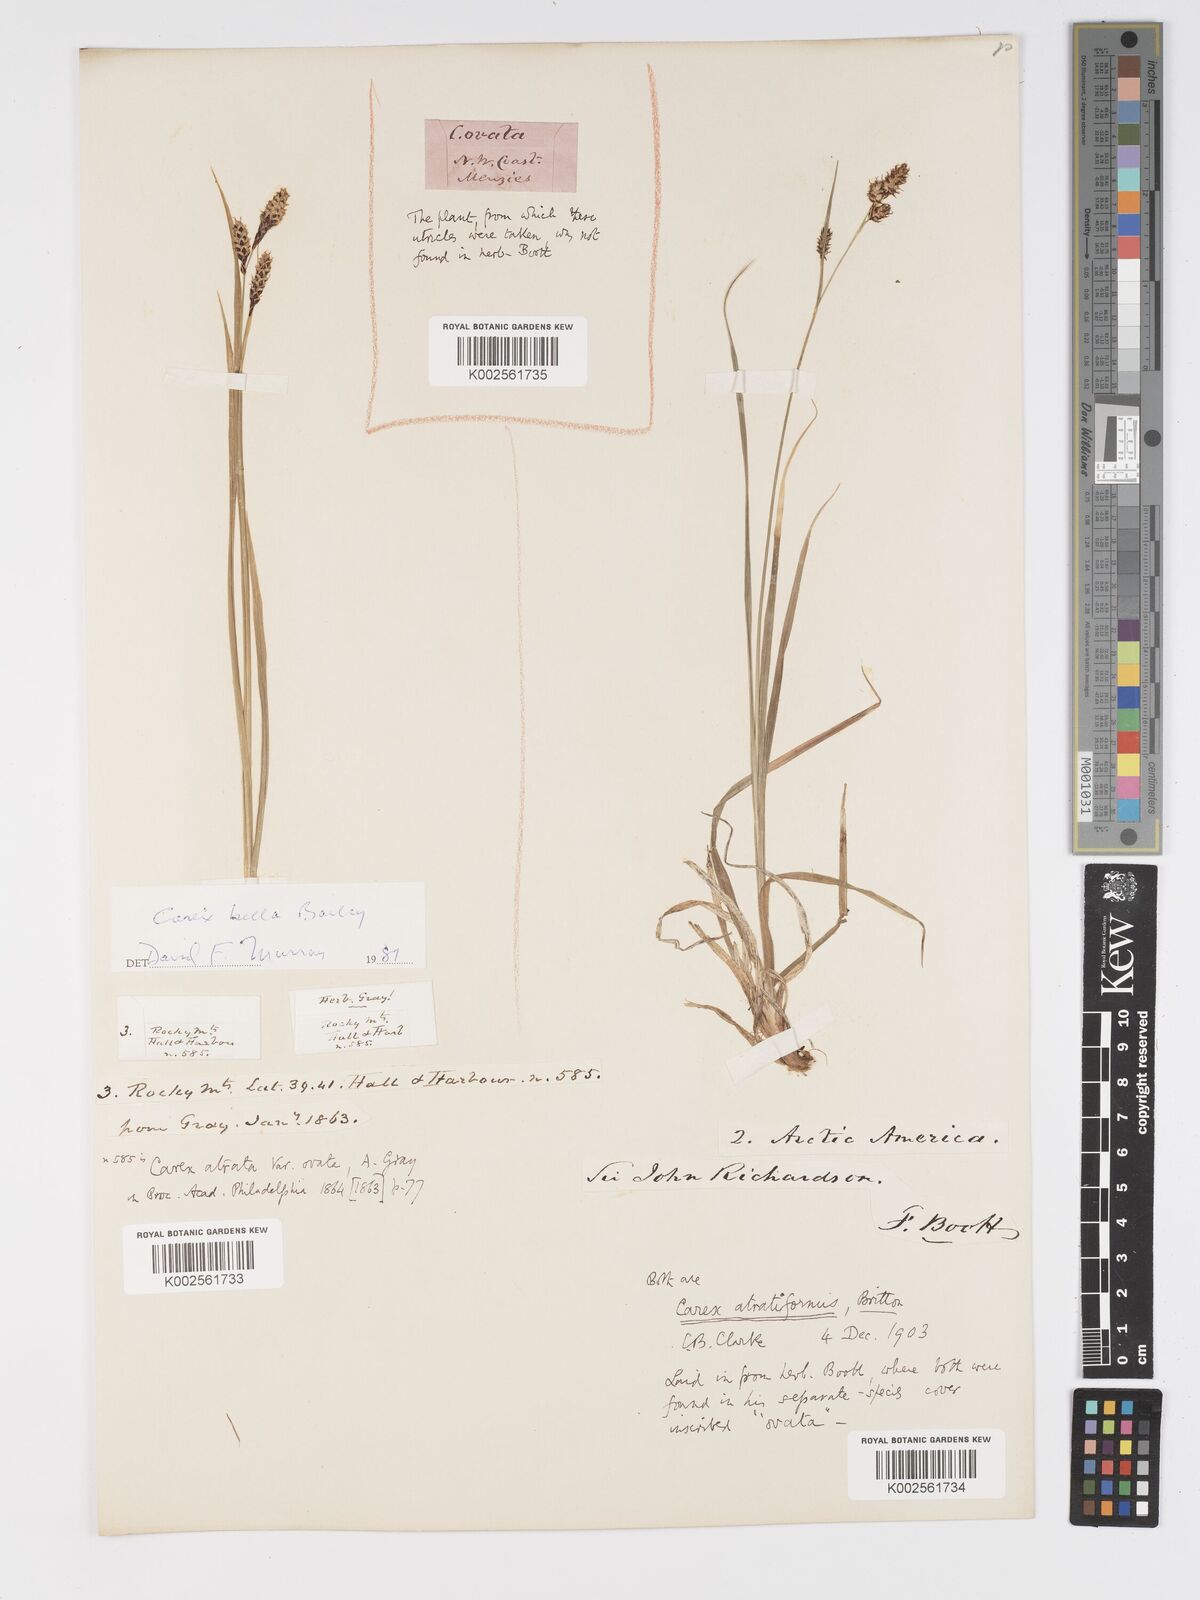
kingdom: Plantae
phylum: Tracheophyta
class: Liliopsida
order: Poales
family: Cyperaceae
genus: Carex
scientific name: Carex atratiformis
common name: Black sedge
